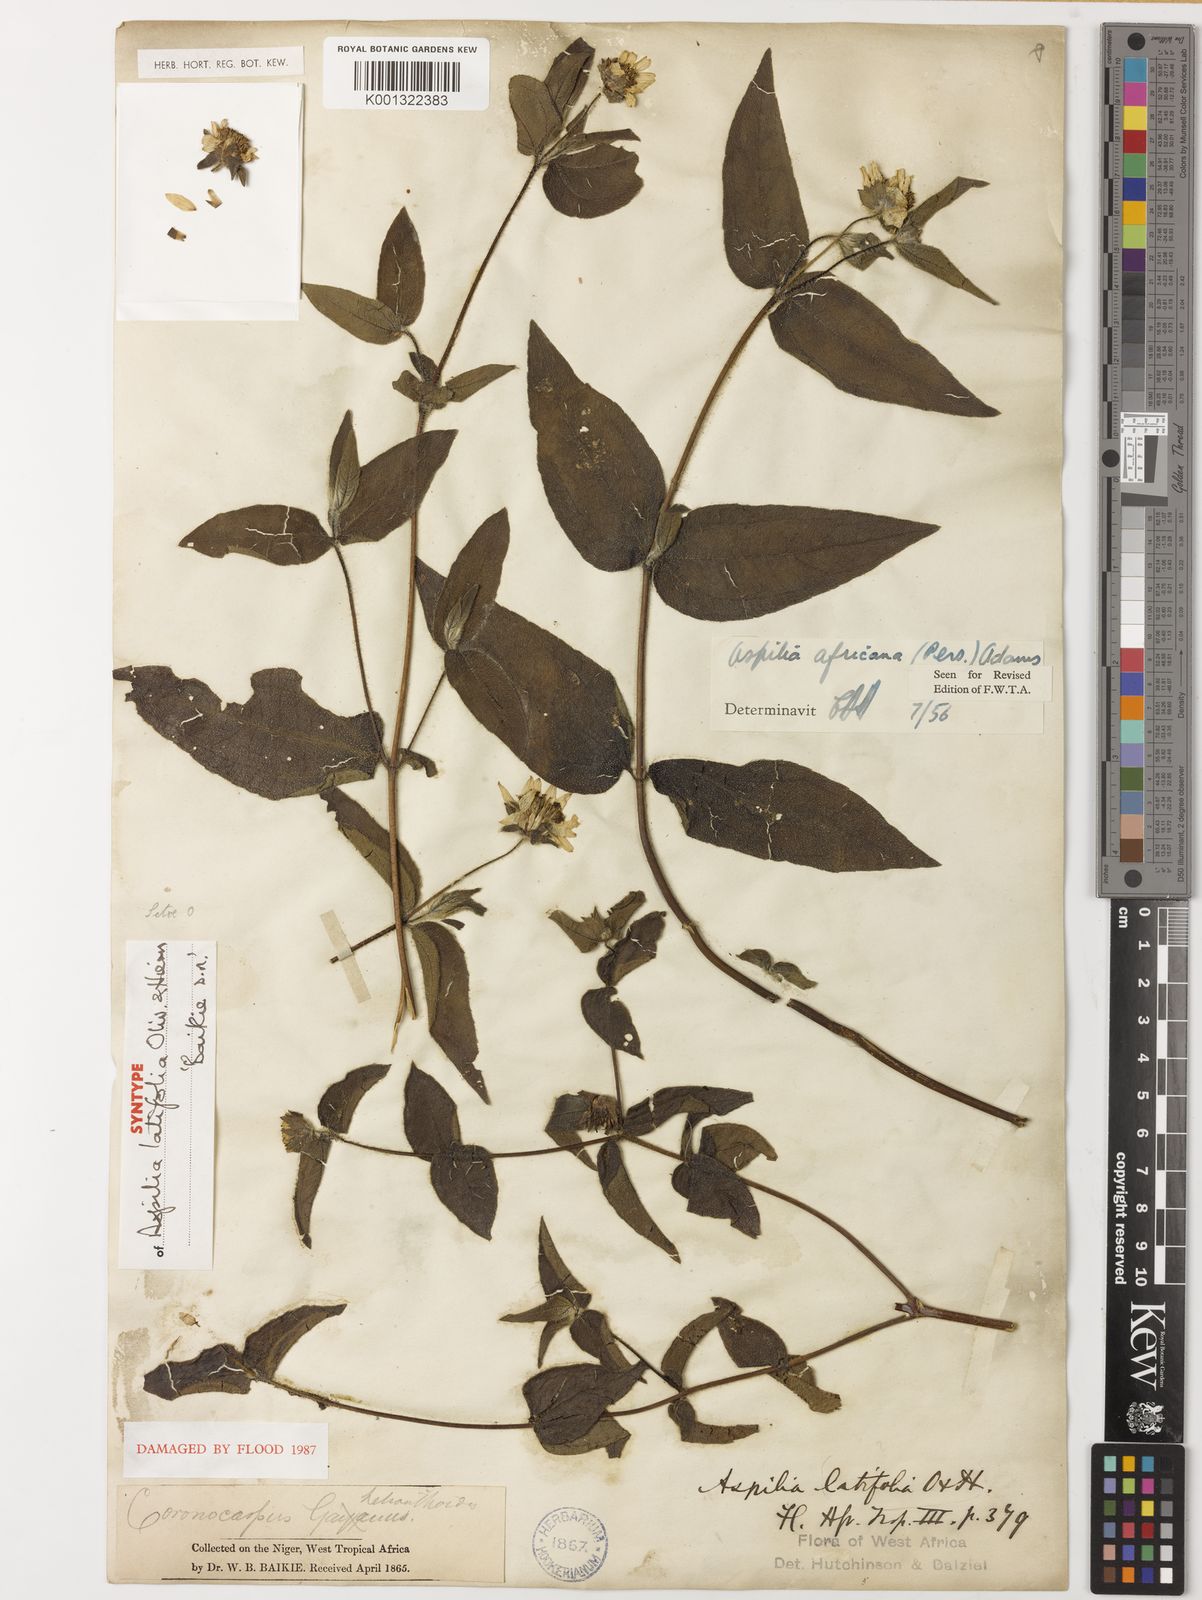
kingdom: Plantae
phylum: Tracheophyta
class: Magnoliopsida
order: Asterales
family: Asteraceae
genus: Aspilia
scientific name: Aspilia africana
